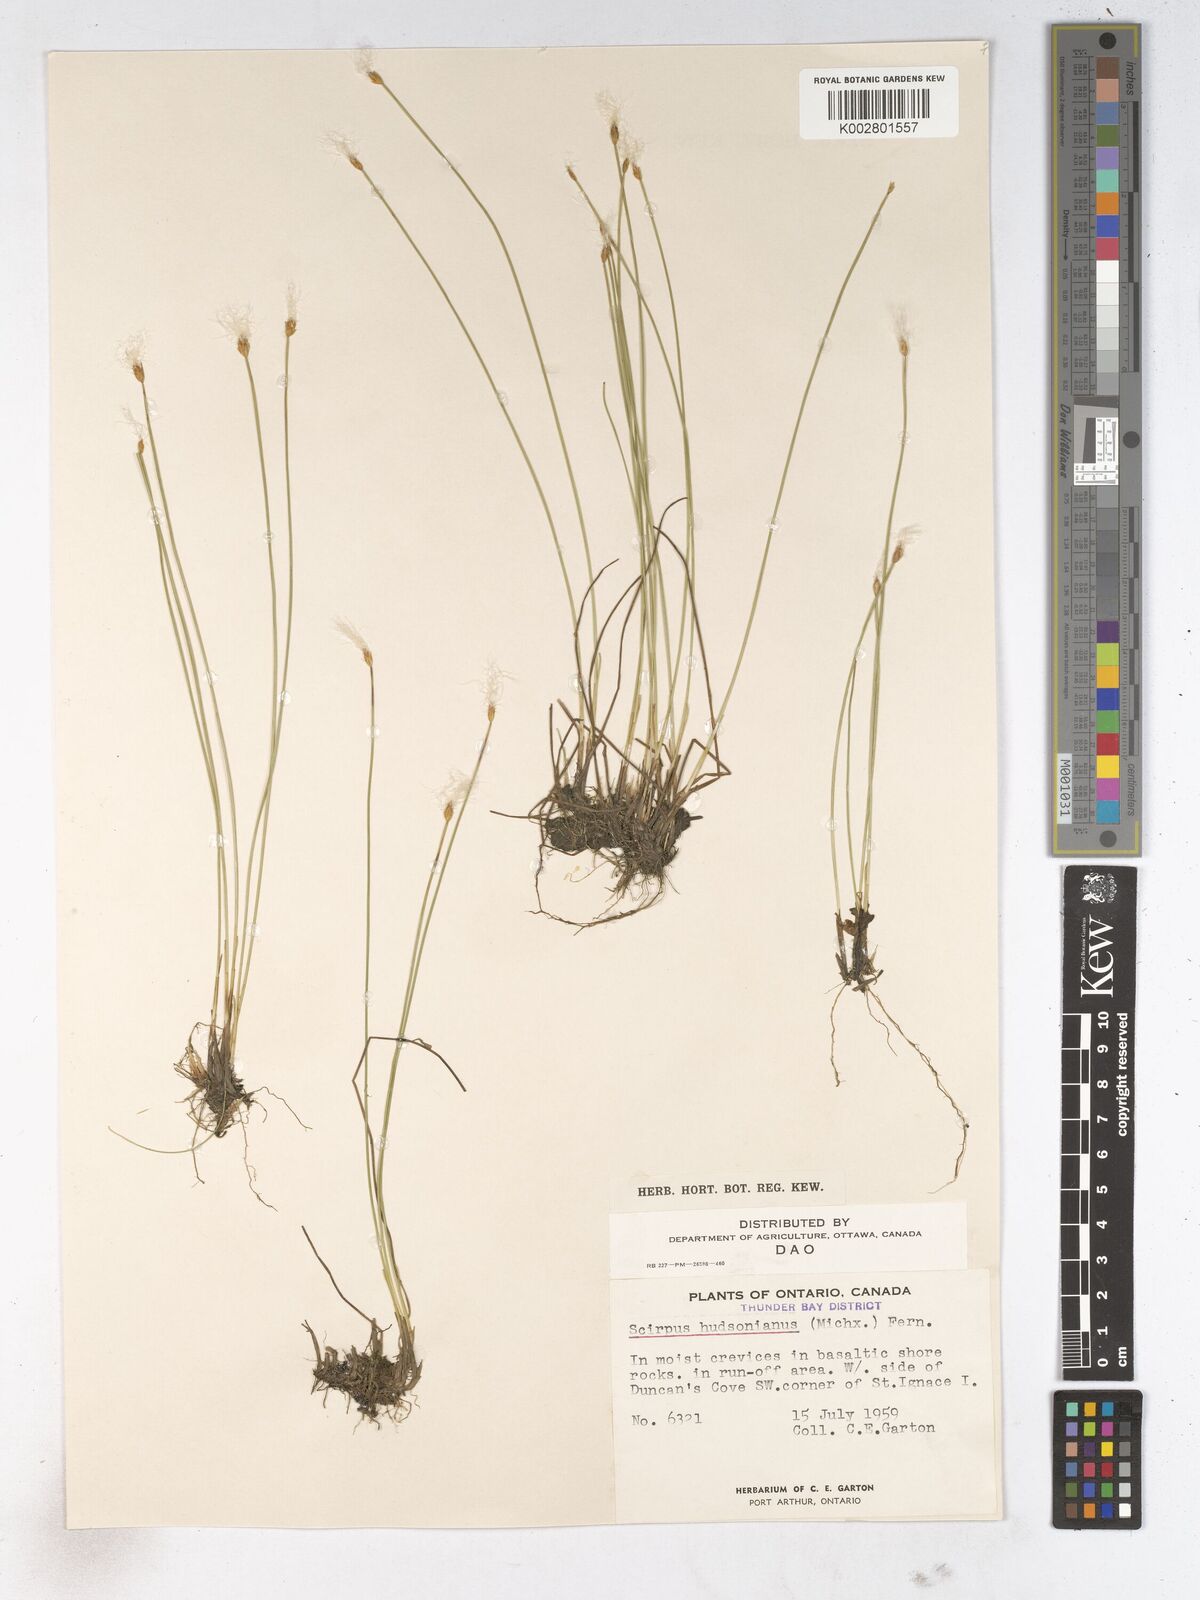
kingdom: Plantae
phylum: Tracheophyta
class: Liliopsida
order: Poales
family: Cyperaceae
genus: Trichophorum
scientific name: Trichophorum alpinum
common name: Alpine bulrush
